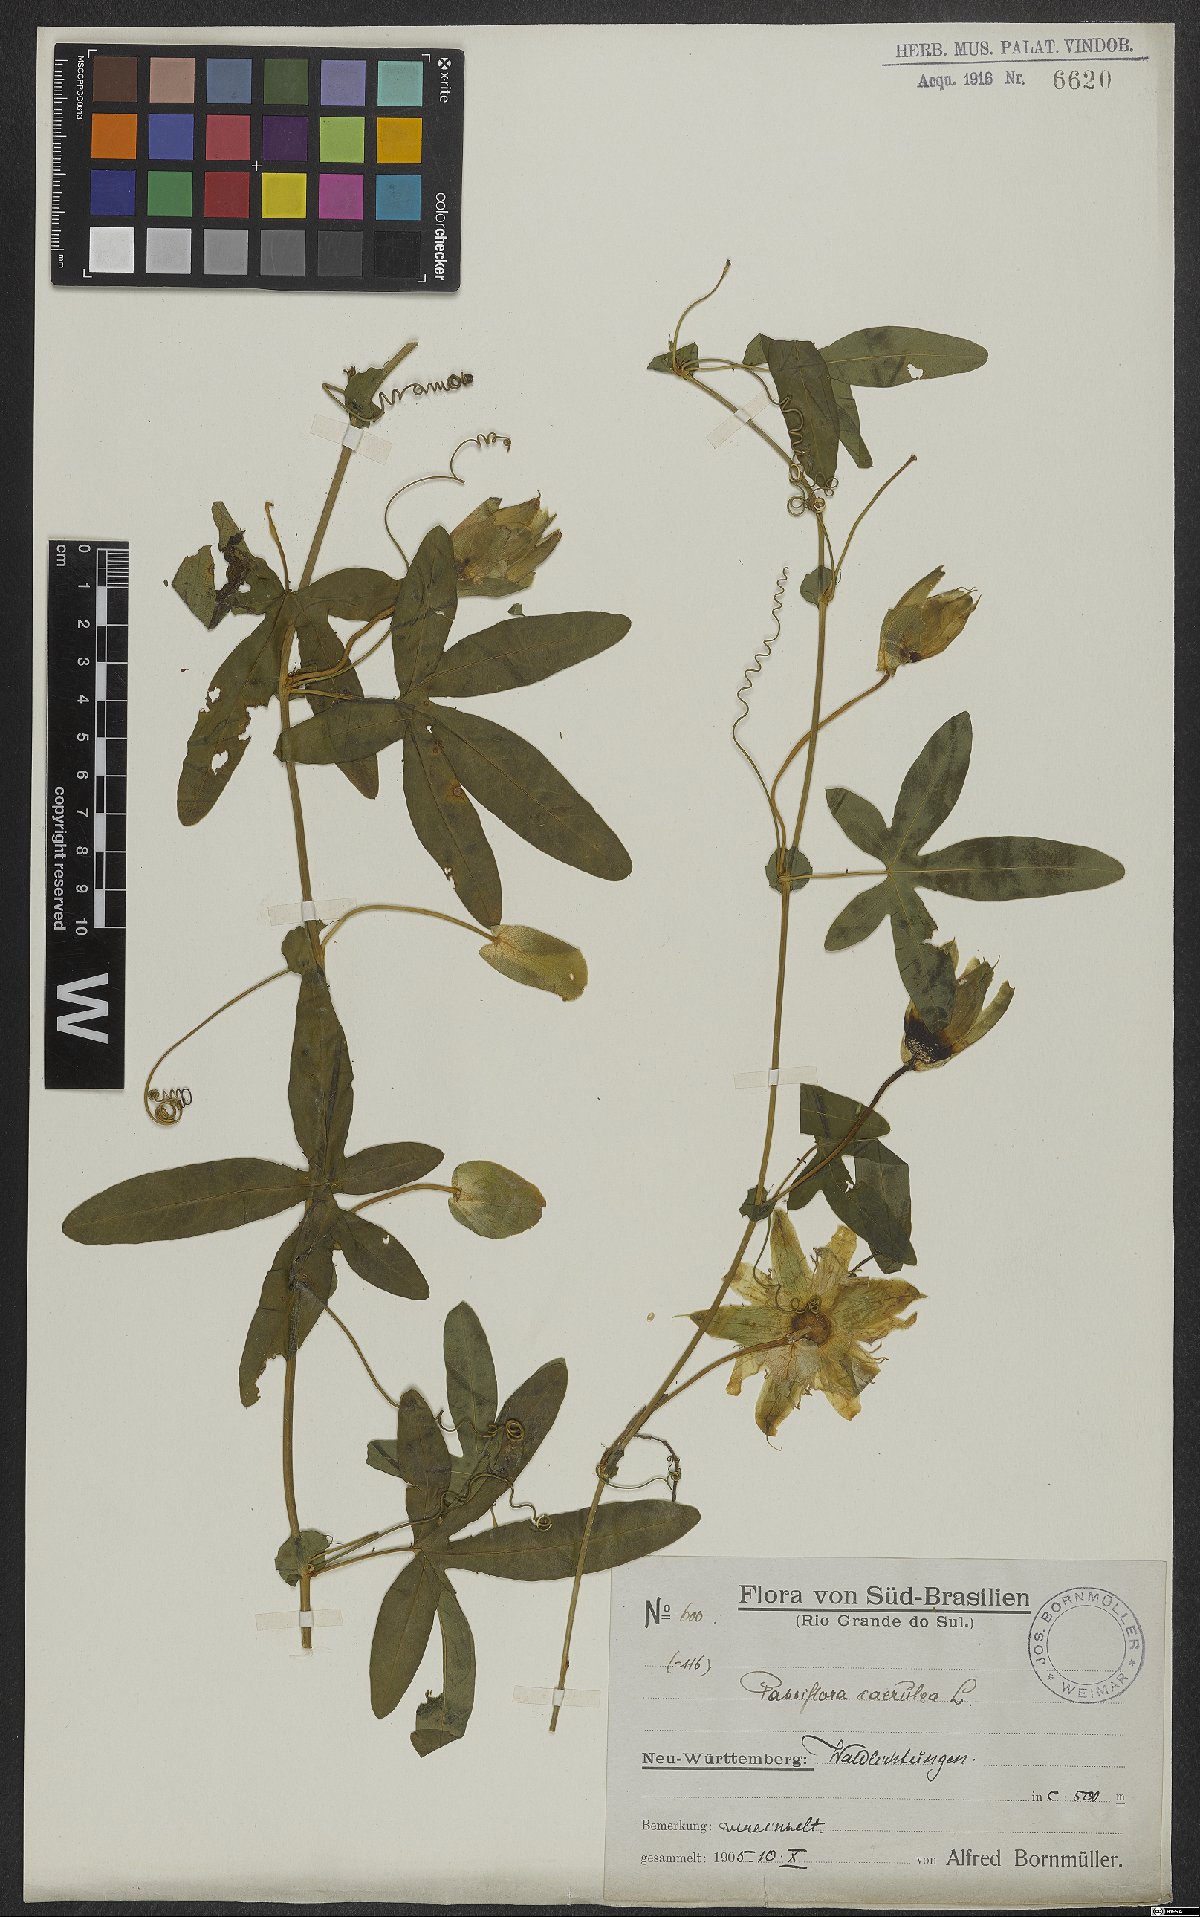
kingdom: Plantae
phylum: Tracheophyta
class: Magnoliopsida
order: Malpighiales
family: Passifloraceae
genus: Passiflora
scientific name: Passiflora caerulea
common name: Blue passionflower
